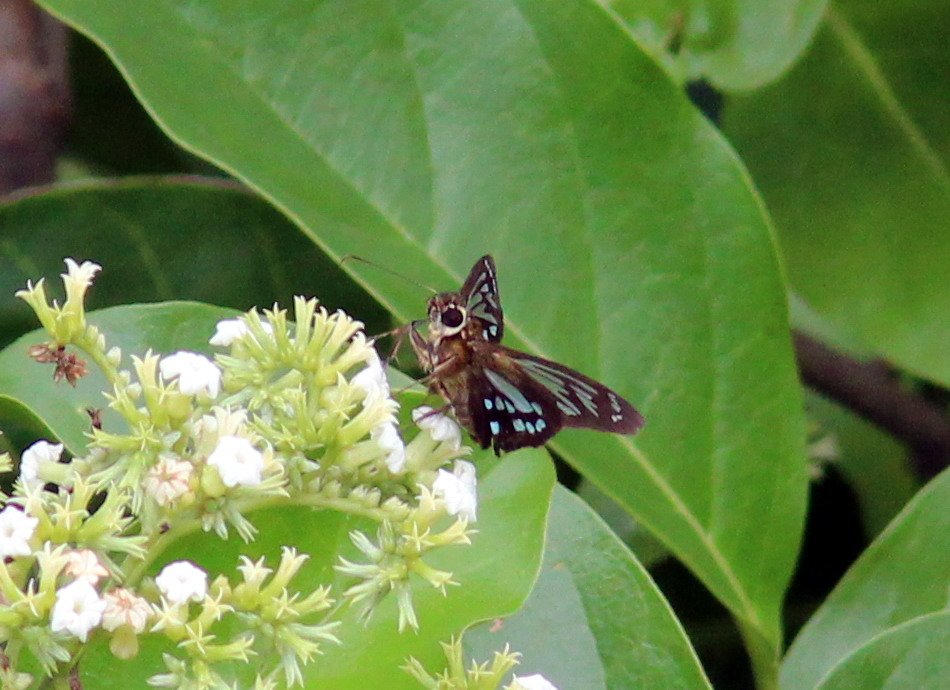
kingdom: Animalia
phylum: Arthropoda
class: Insecta
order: Lepidoptera
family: Hesperiidae
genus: Phanus
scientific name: Phanus vitreus
